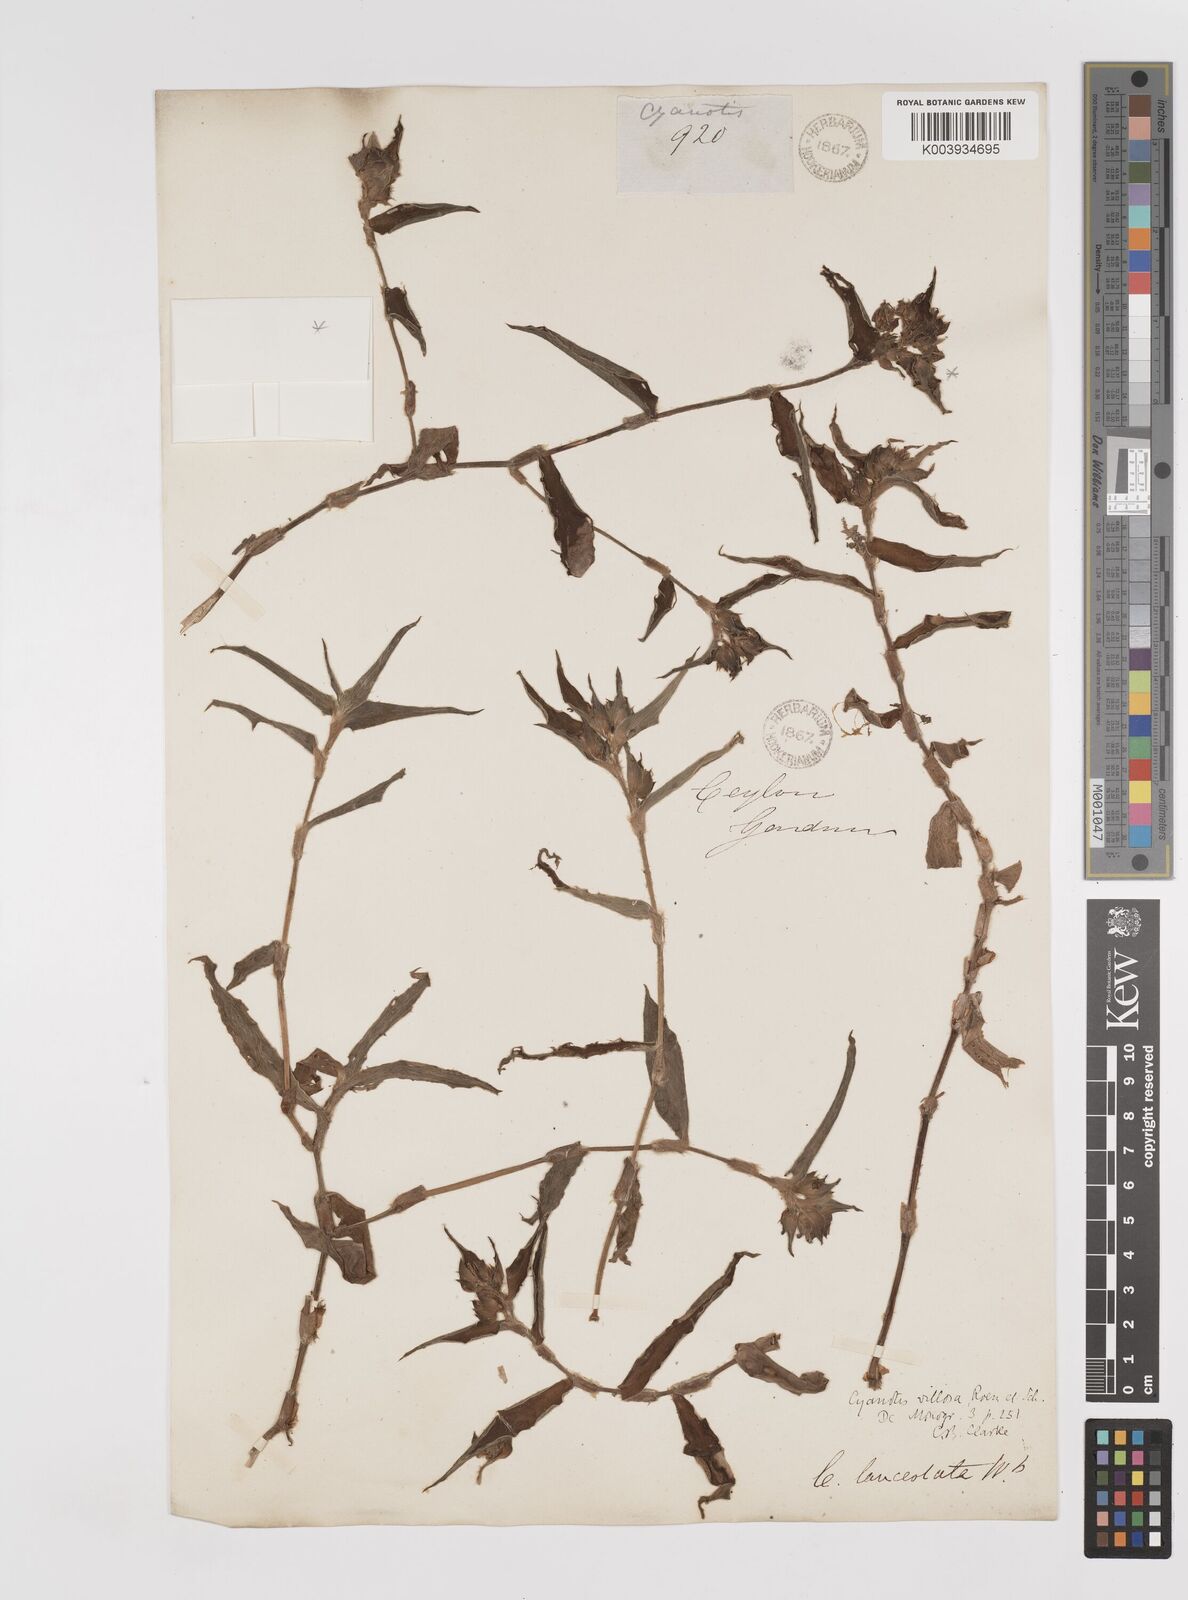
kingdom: Plantae
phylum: Tracheophyta
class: Liliopsida
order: Commelinales
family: Commelinaceae
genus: Cyanotis
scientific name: Cyanotis villosa
